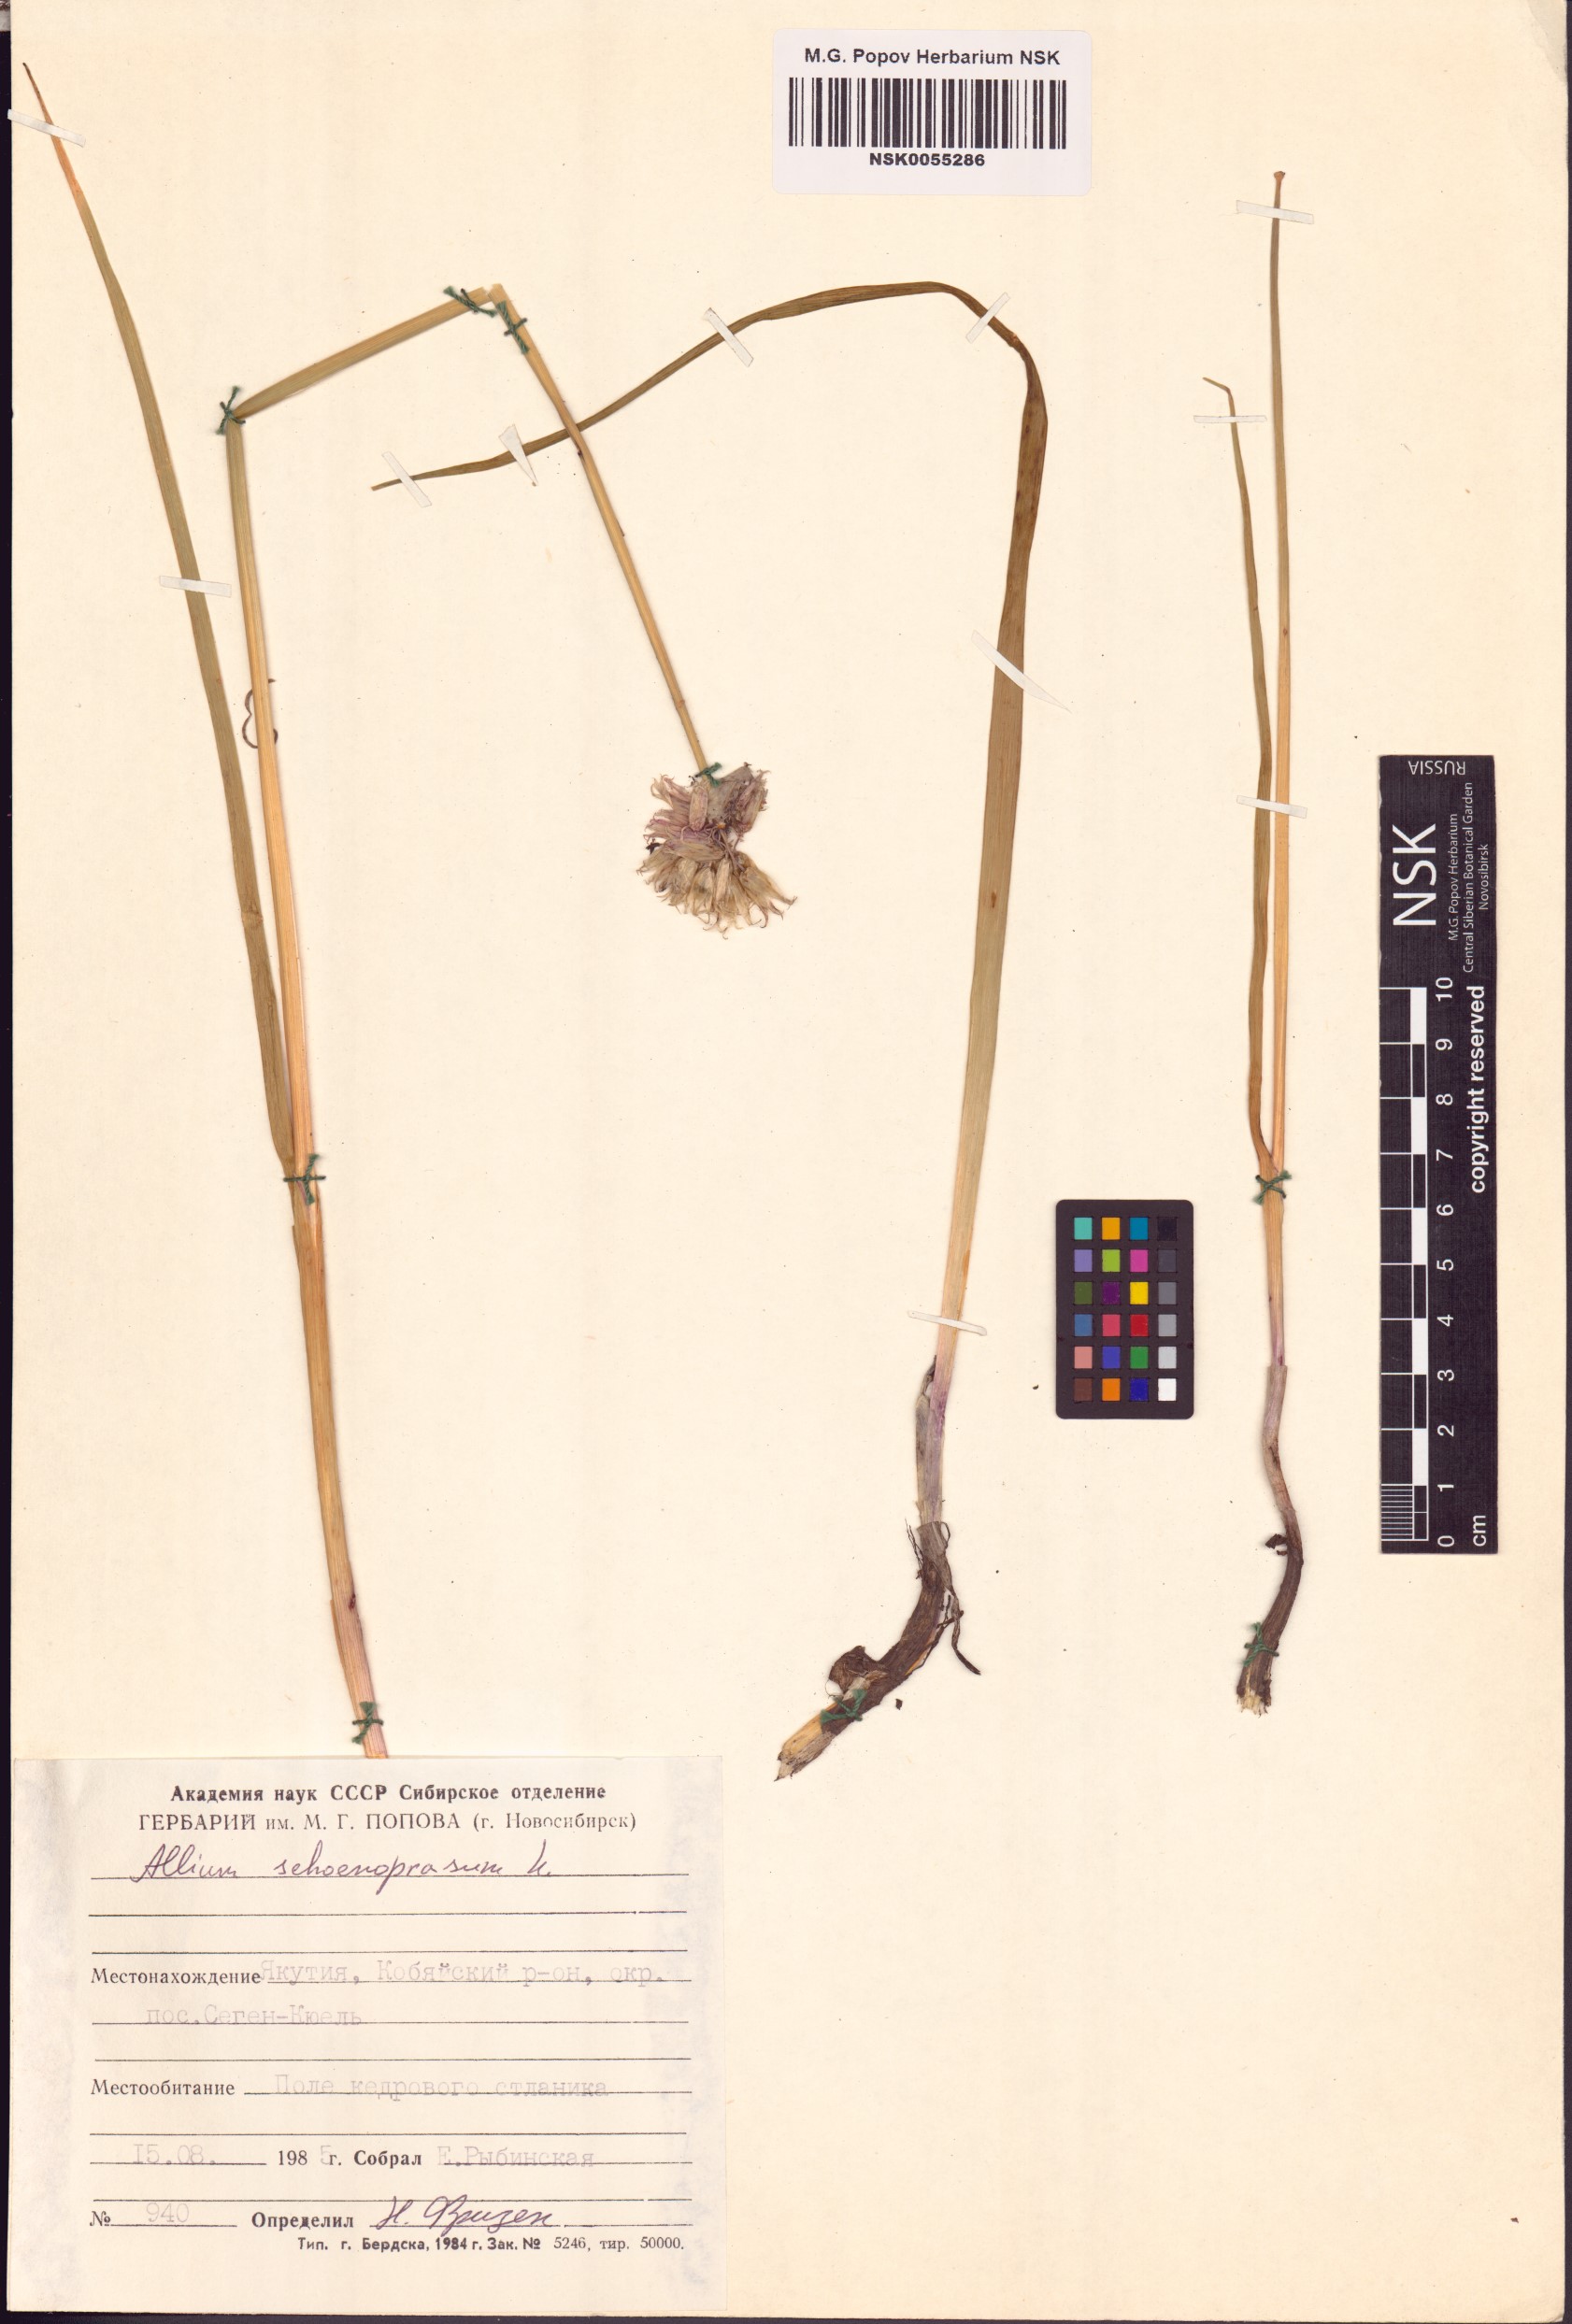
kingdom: Plantae
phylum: Tracheophyta
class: Liliopsida
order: Asparagales
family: Amaryllidaceae
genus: Allium
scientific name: Allium schoenoprasum
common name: Chives
